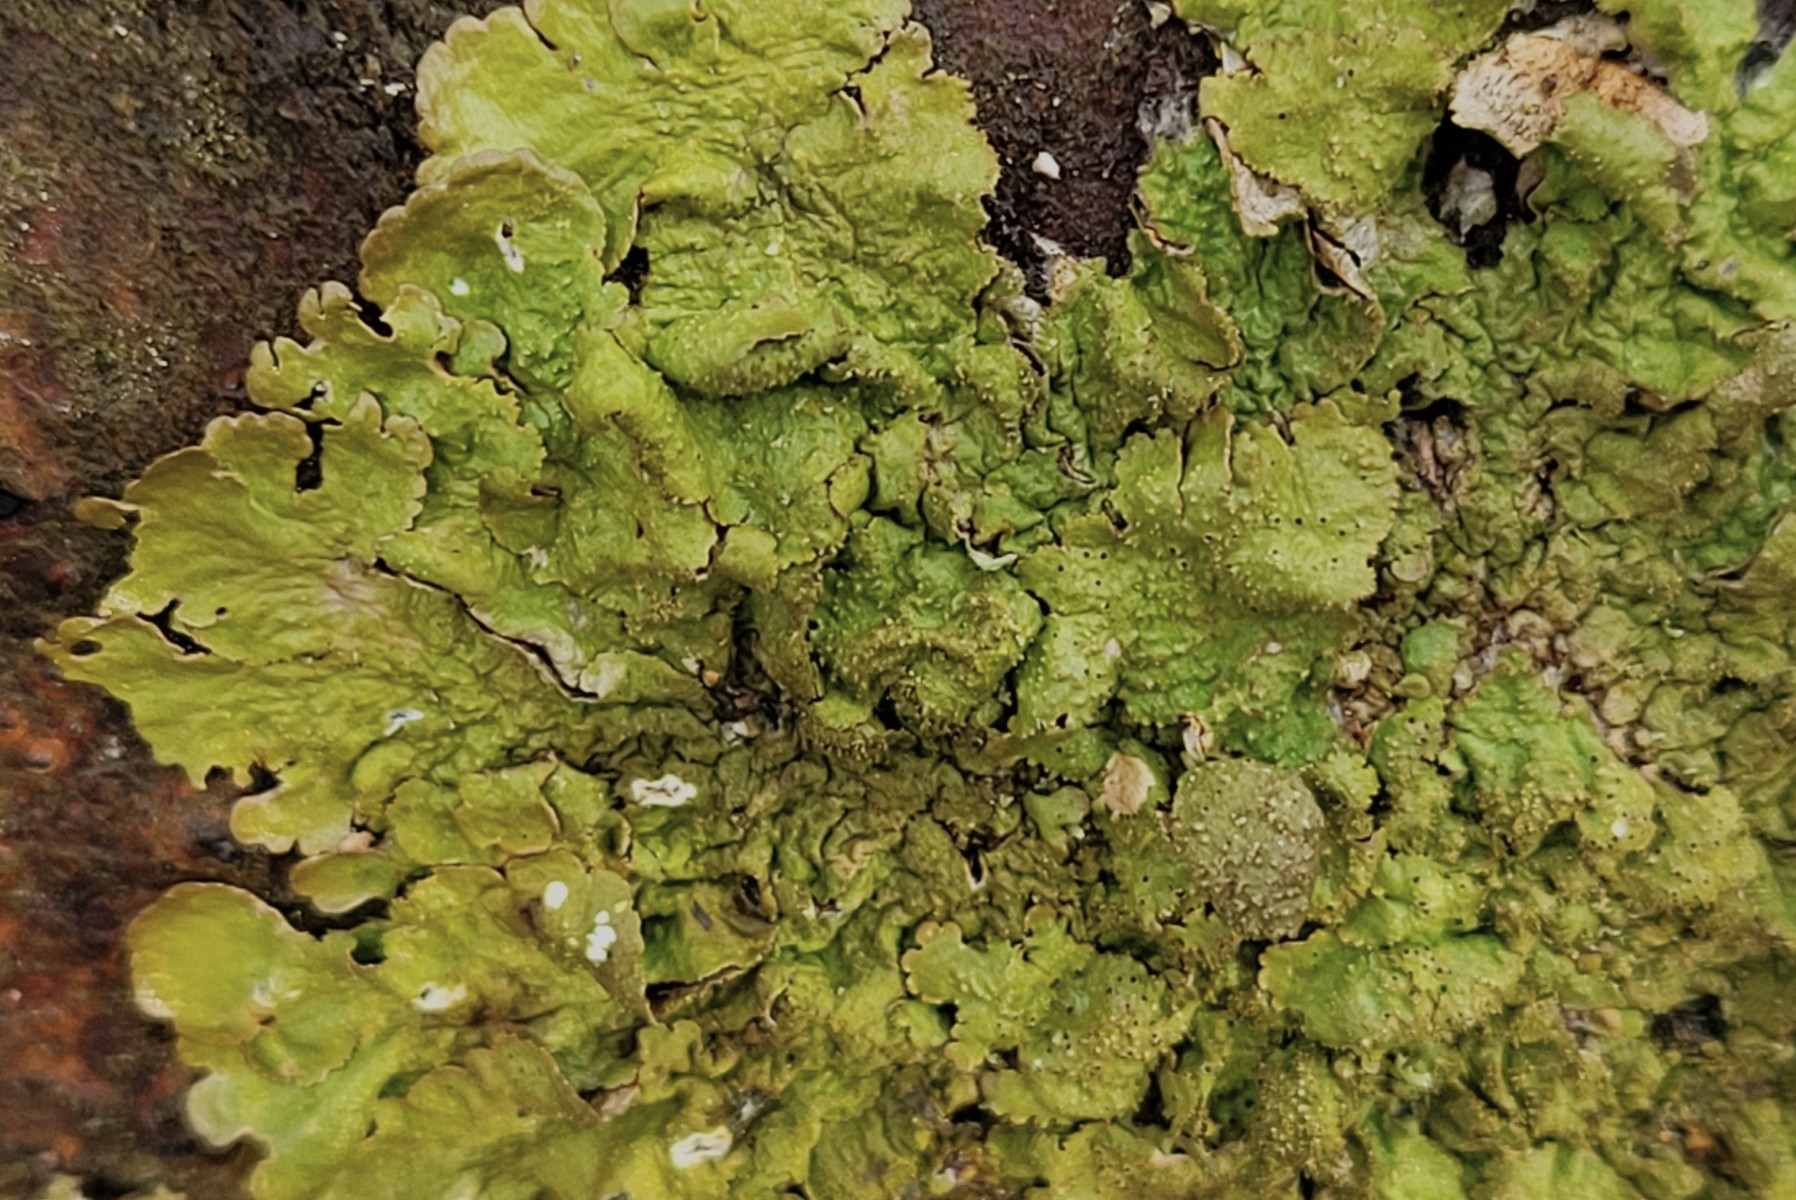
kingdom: Fungi
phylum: Ascomycota
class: Lecanoromycetes
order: Lecanorales
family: Parmeliaceae
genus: Melanelixia
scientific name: Melanelixia glabratula
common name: glinsende skållav
